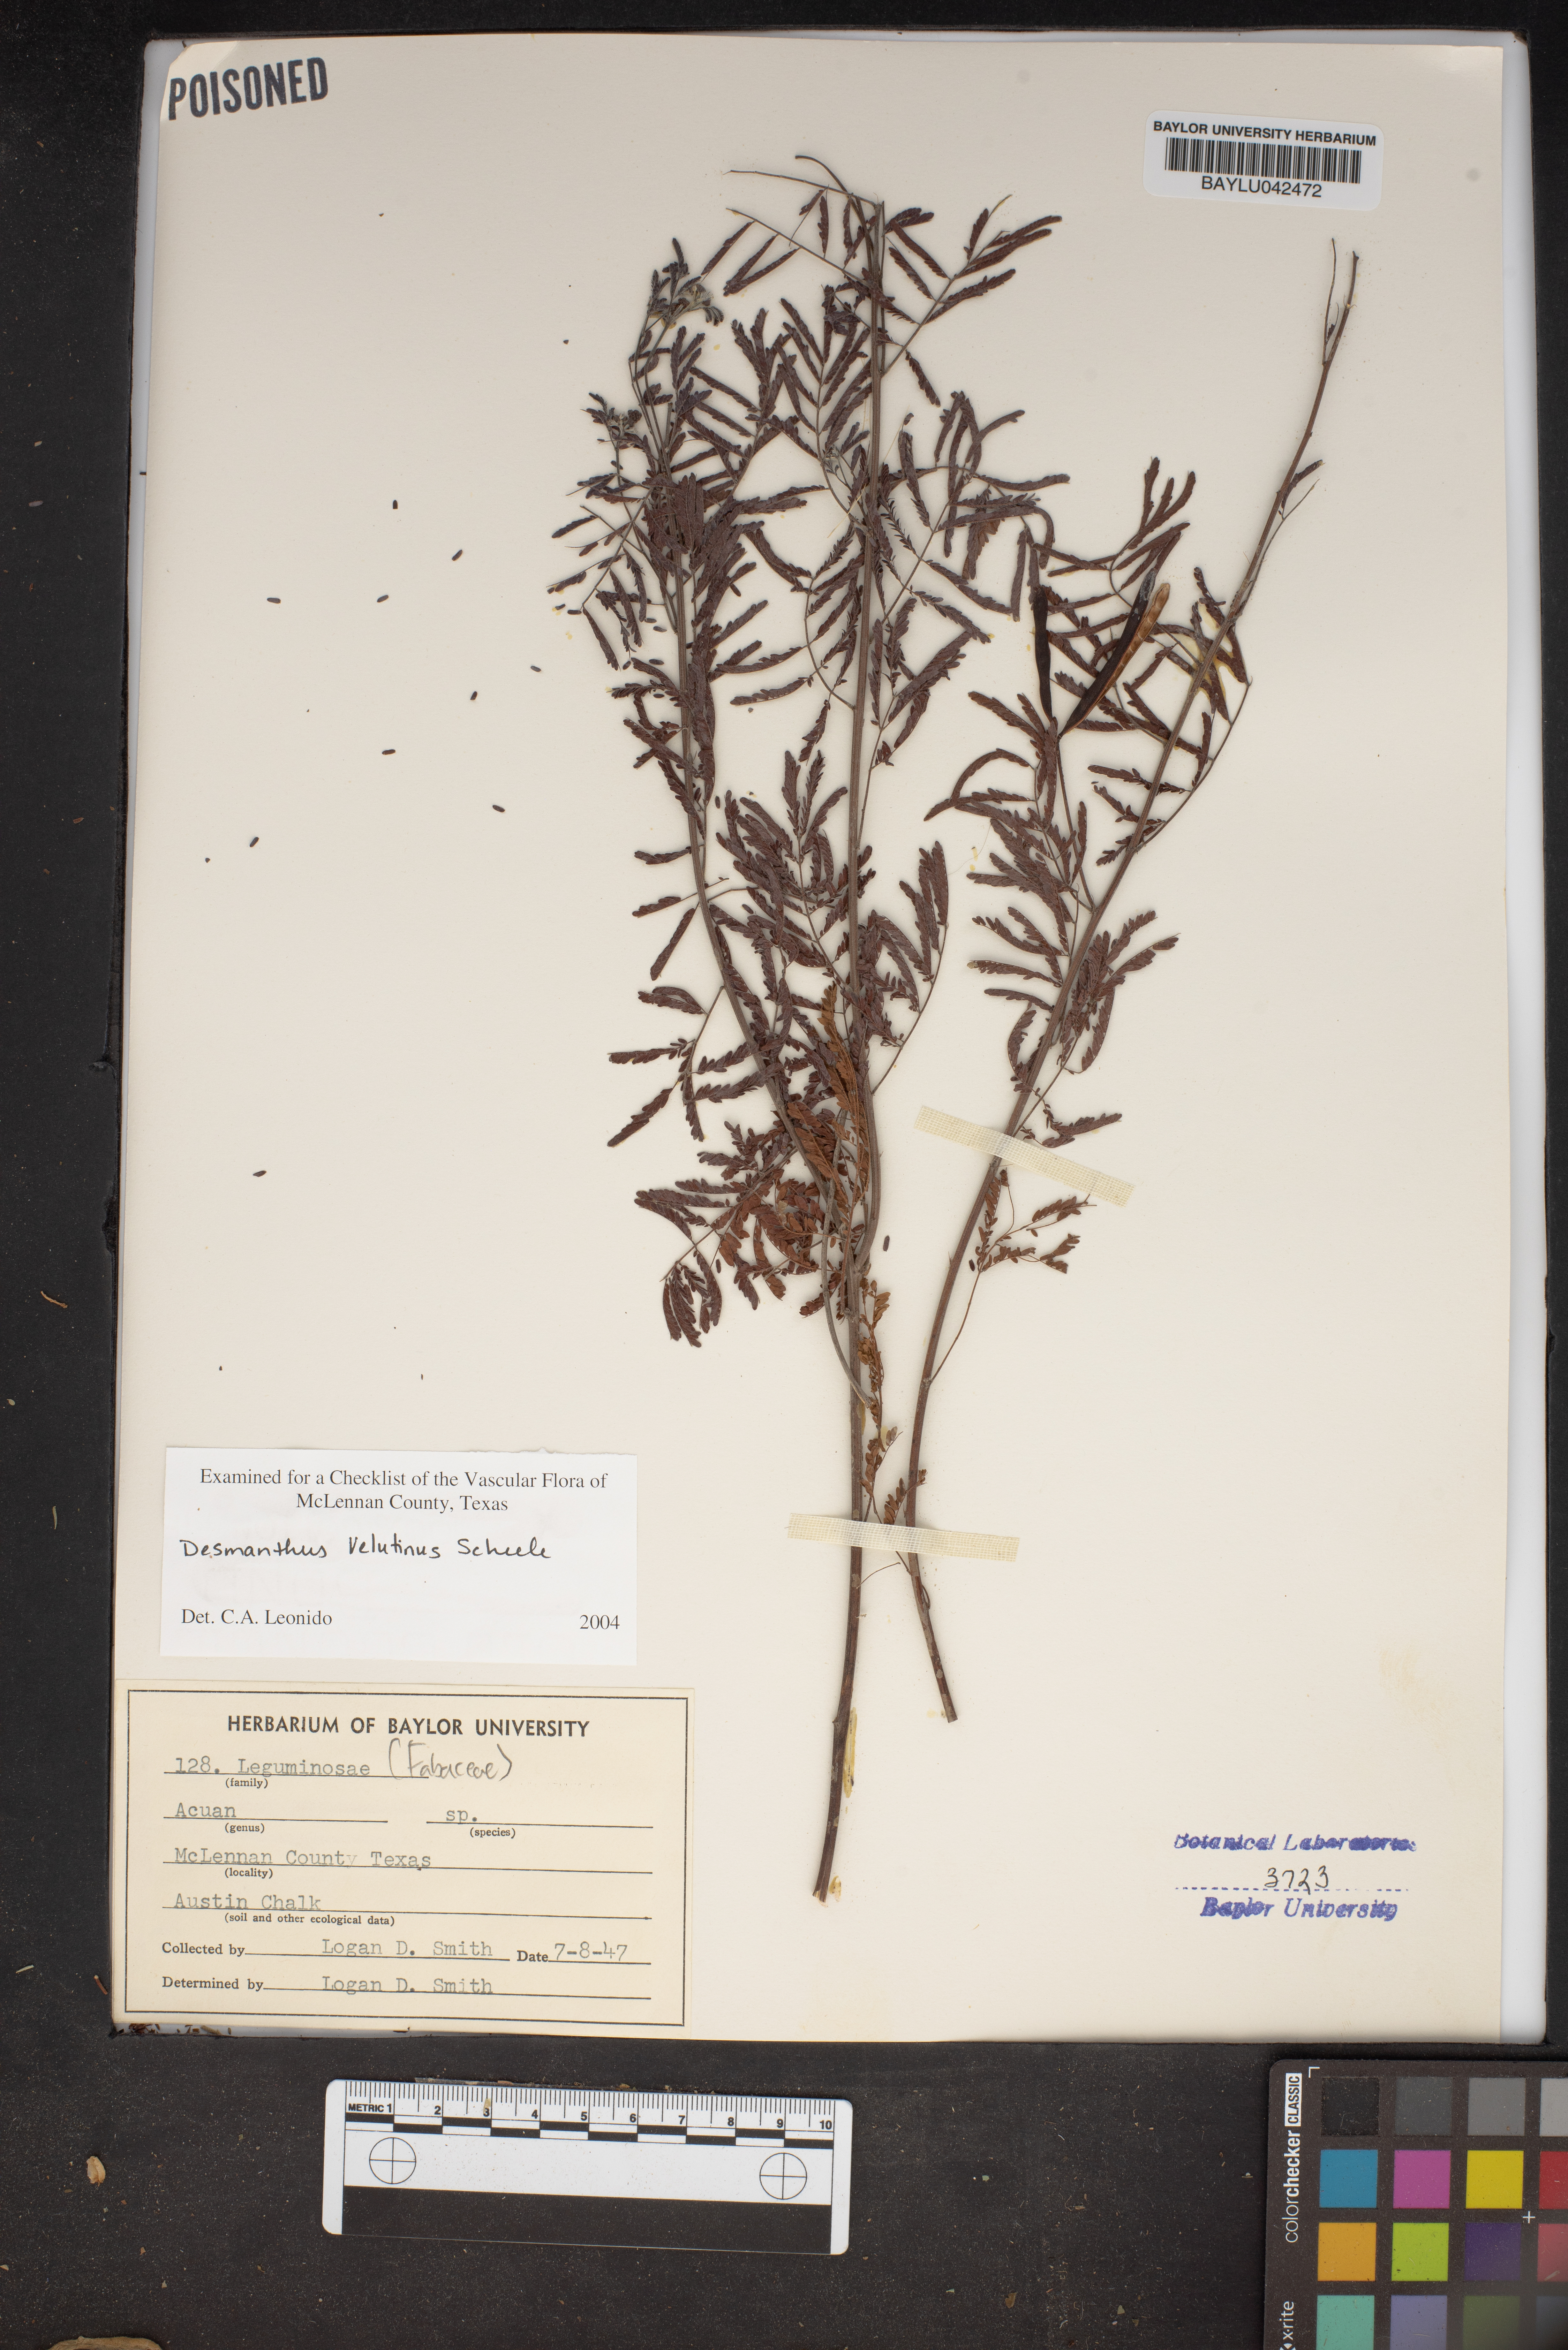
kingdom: Plantae
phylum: Tracheophyta
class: Magnoliopsida
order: Fabales
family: Fabaceae
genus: Desmanthus
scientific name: Desmanthus velutinus
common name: Velvet bundle-flower
